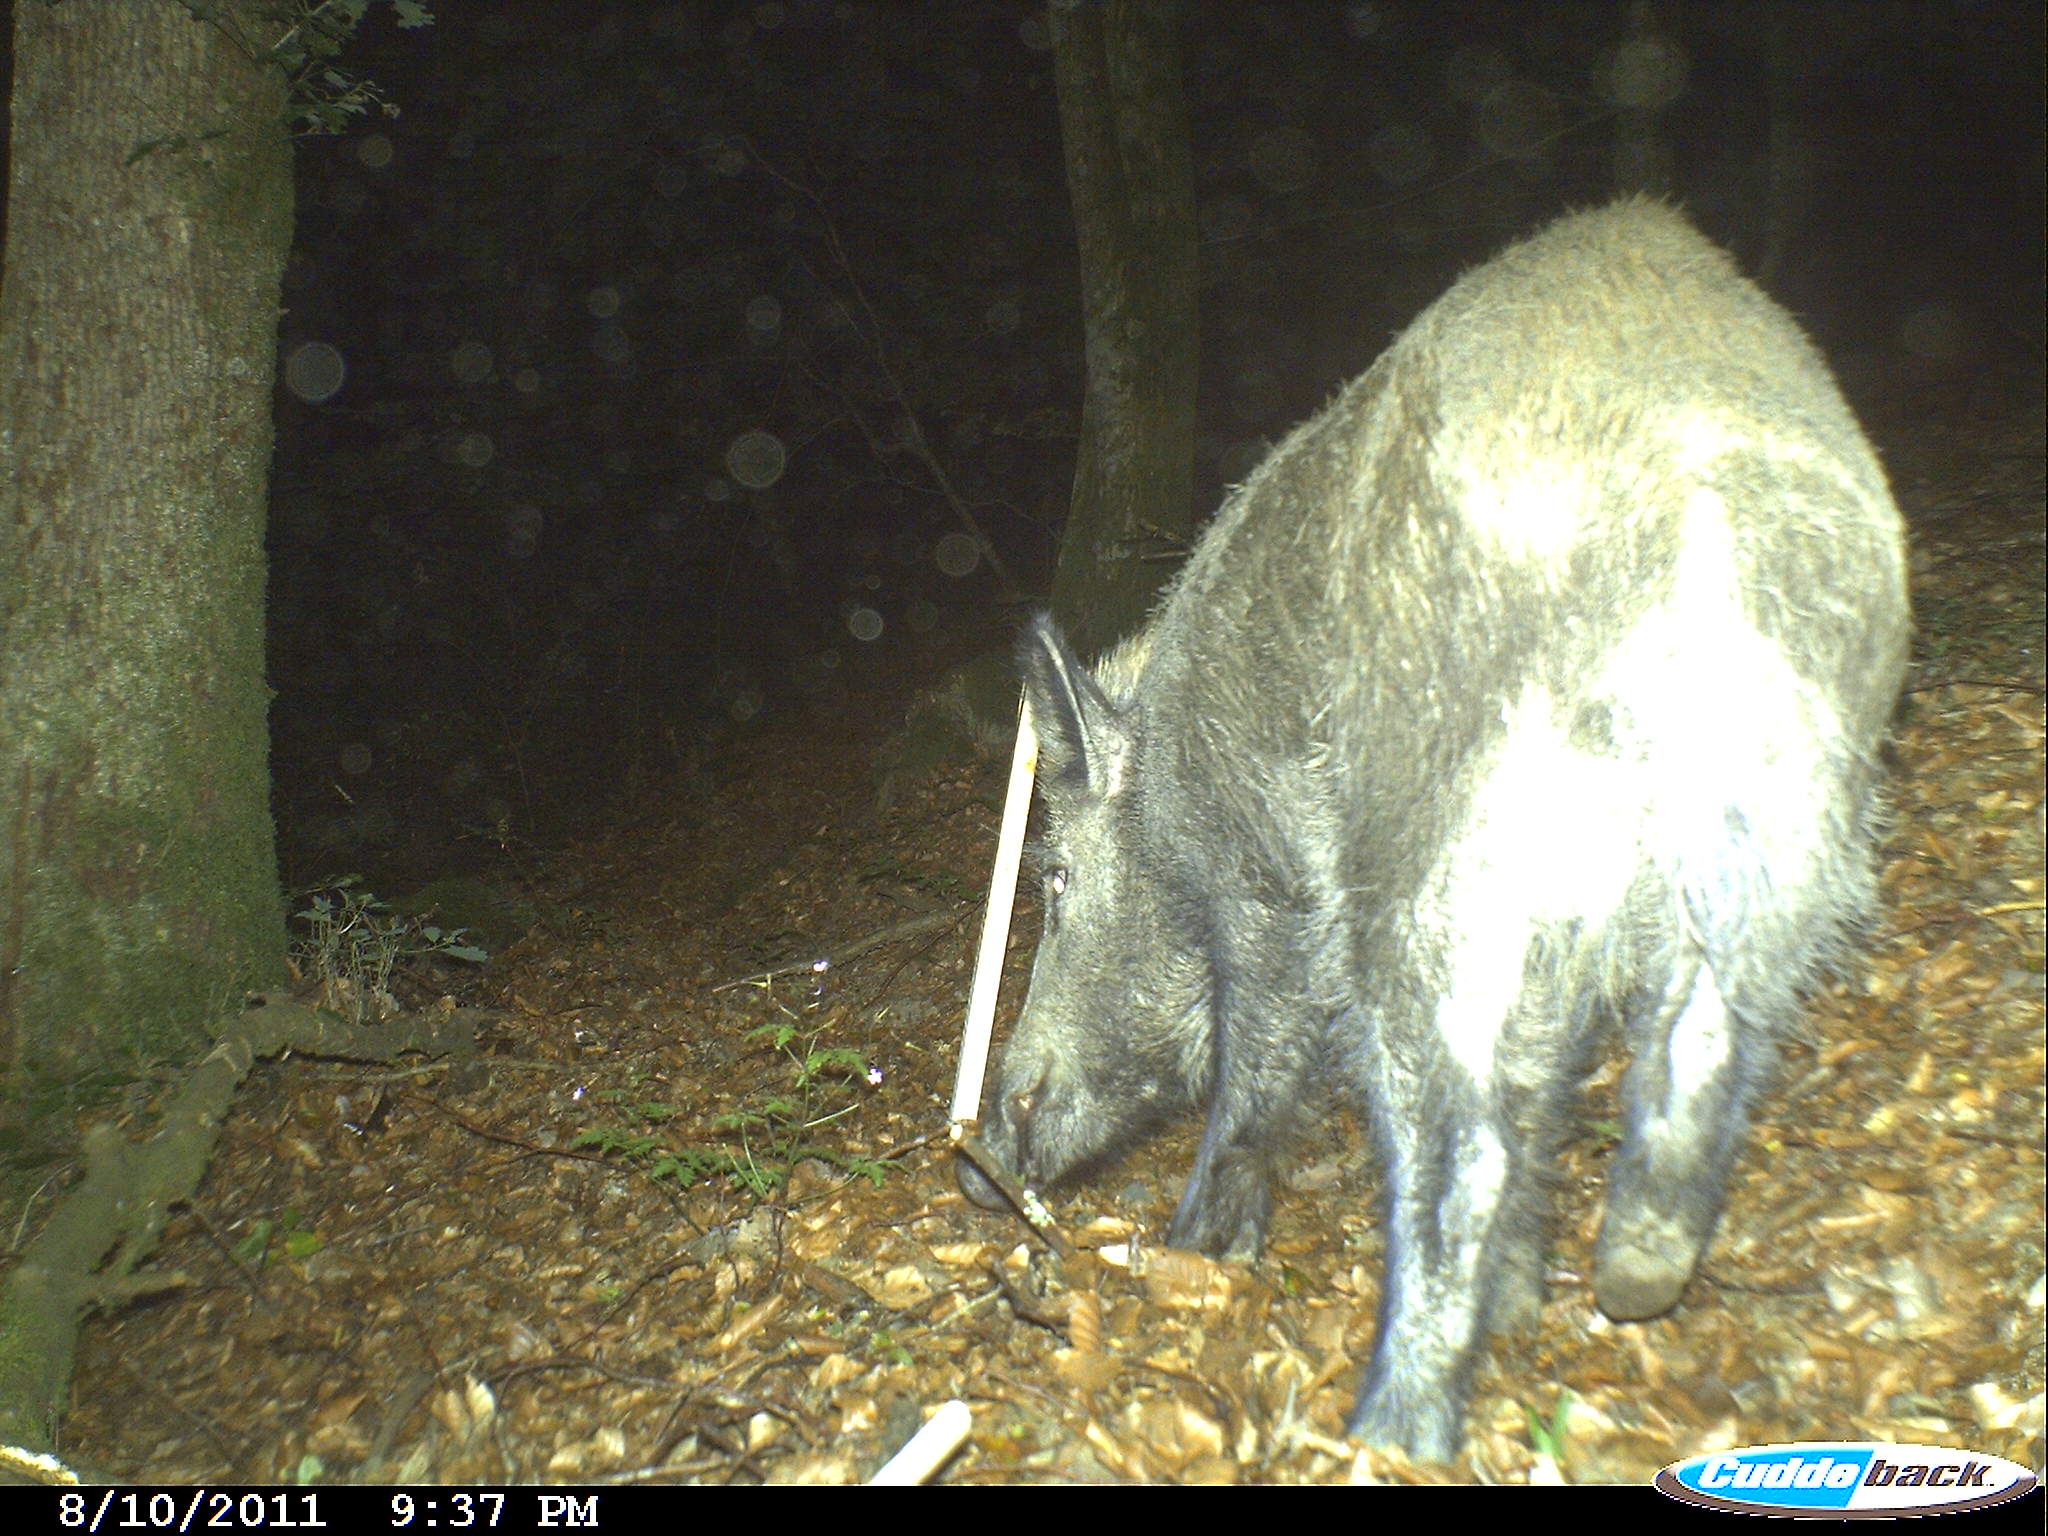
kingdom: Animalia
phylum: Chordata
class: Mammalia
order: Artiodactyla
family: Suidae
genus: Sus
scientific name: Sus scrofa
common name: Wild boar
